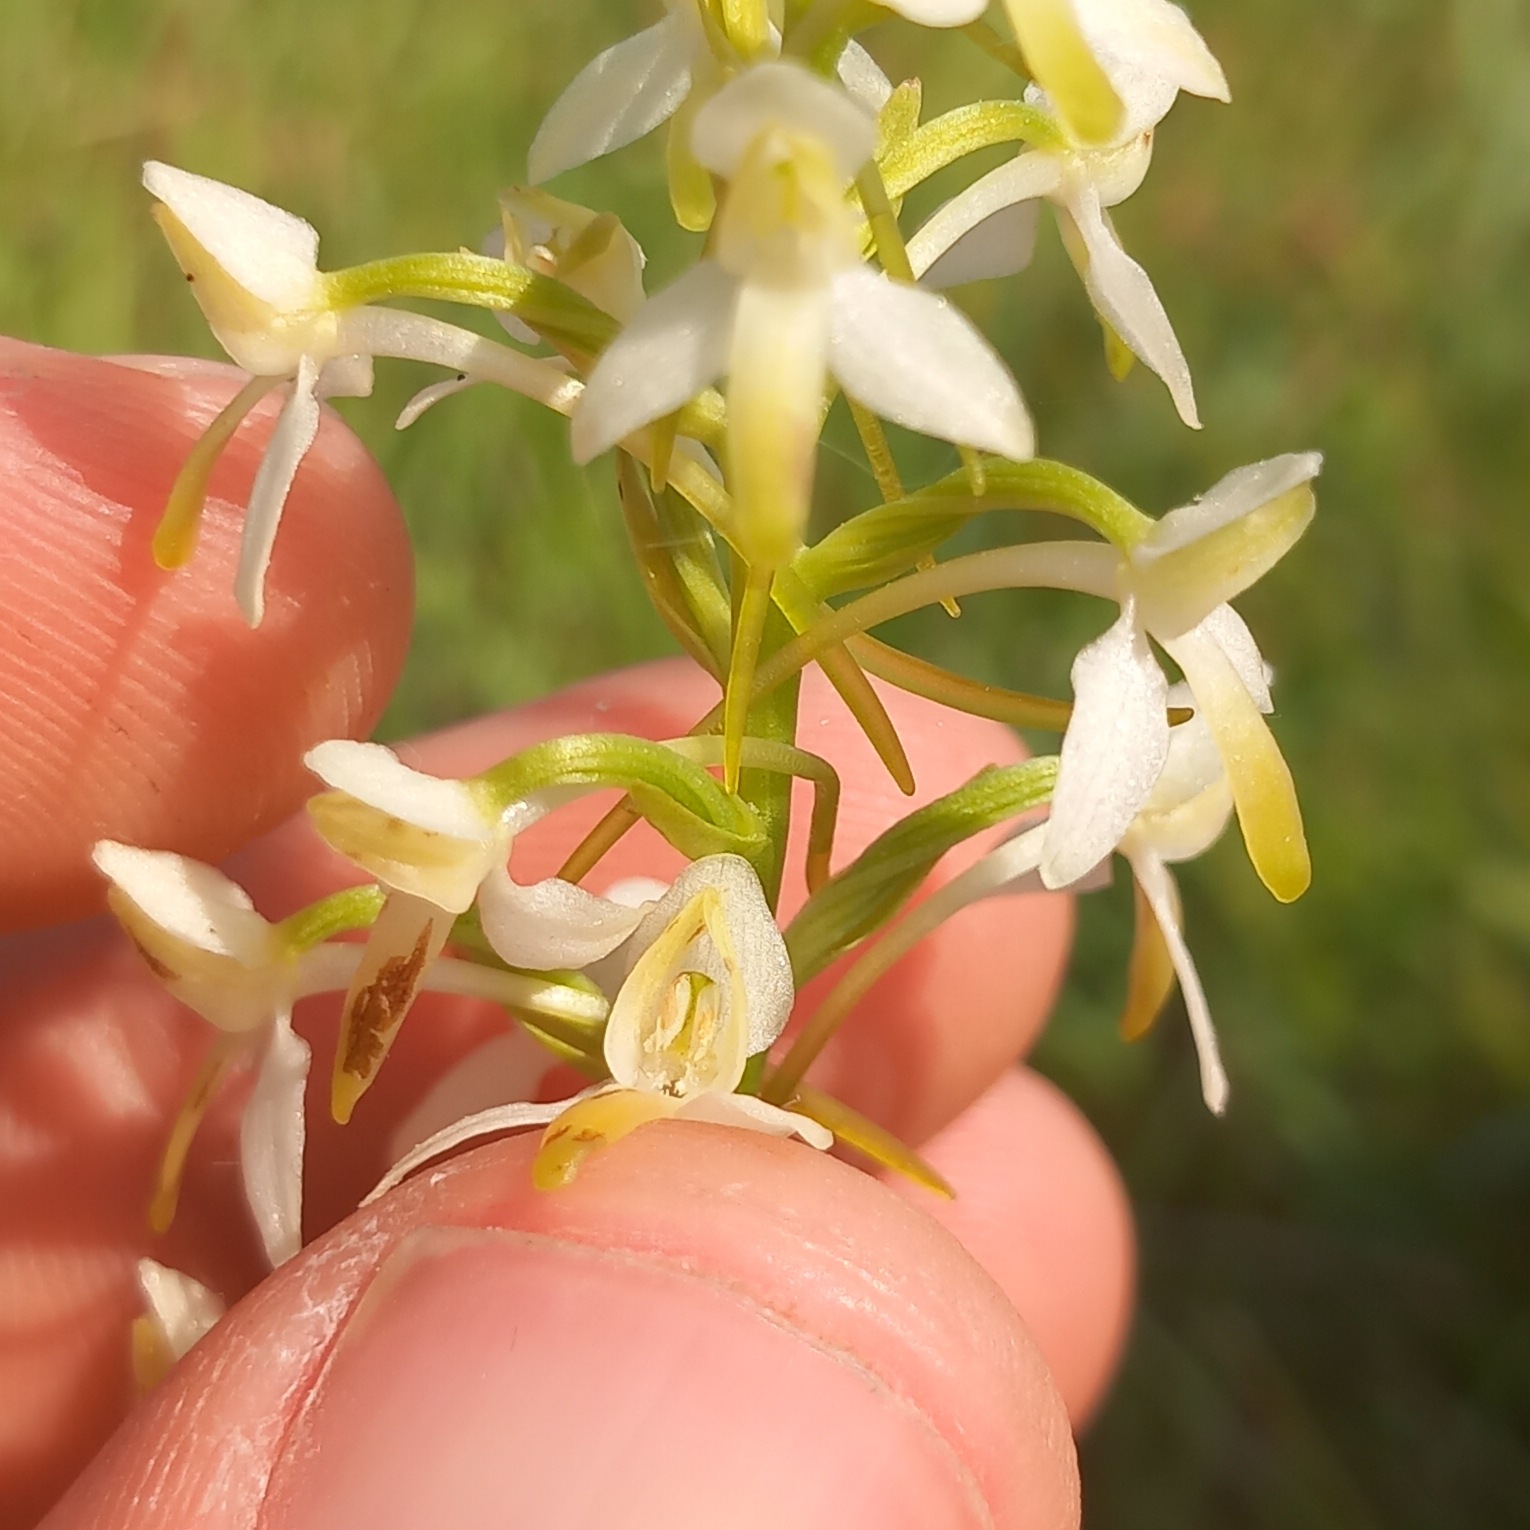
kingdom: Plantae
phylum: Tracheophyta
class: Liliopsida
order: Asparagales
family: Orchidaceae
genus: Platanthera
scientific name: Platanthera bifolia
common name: Bakke-gøgelilje
